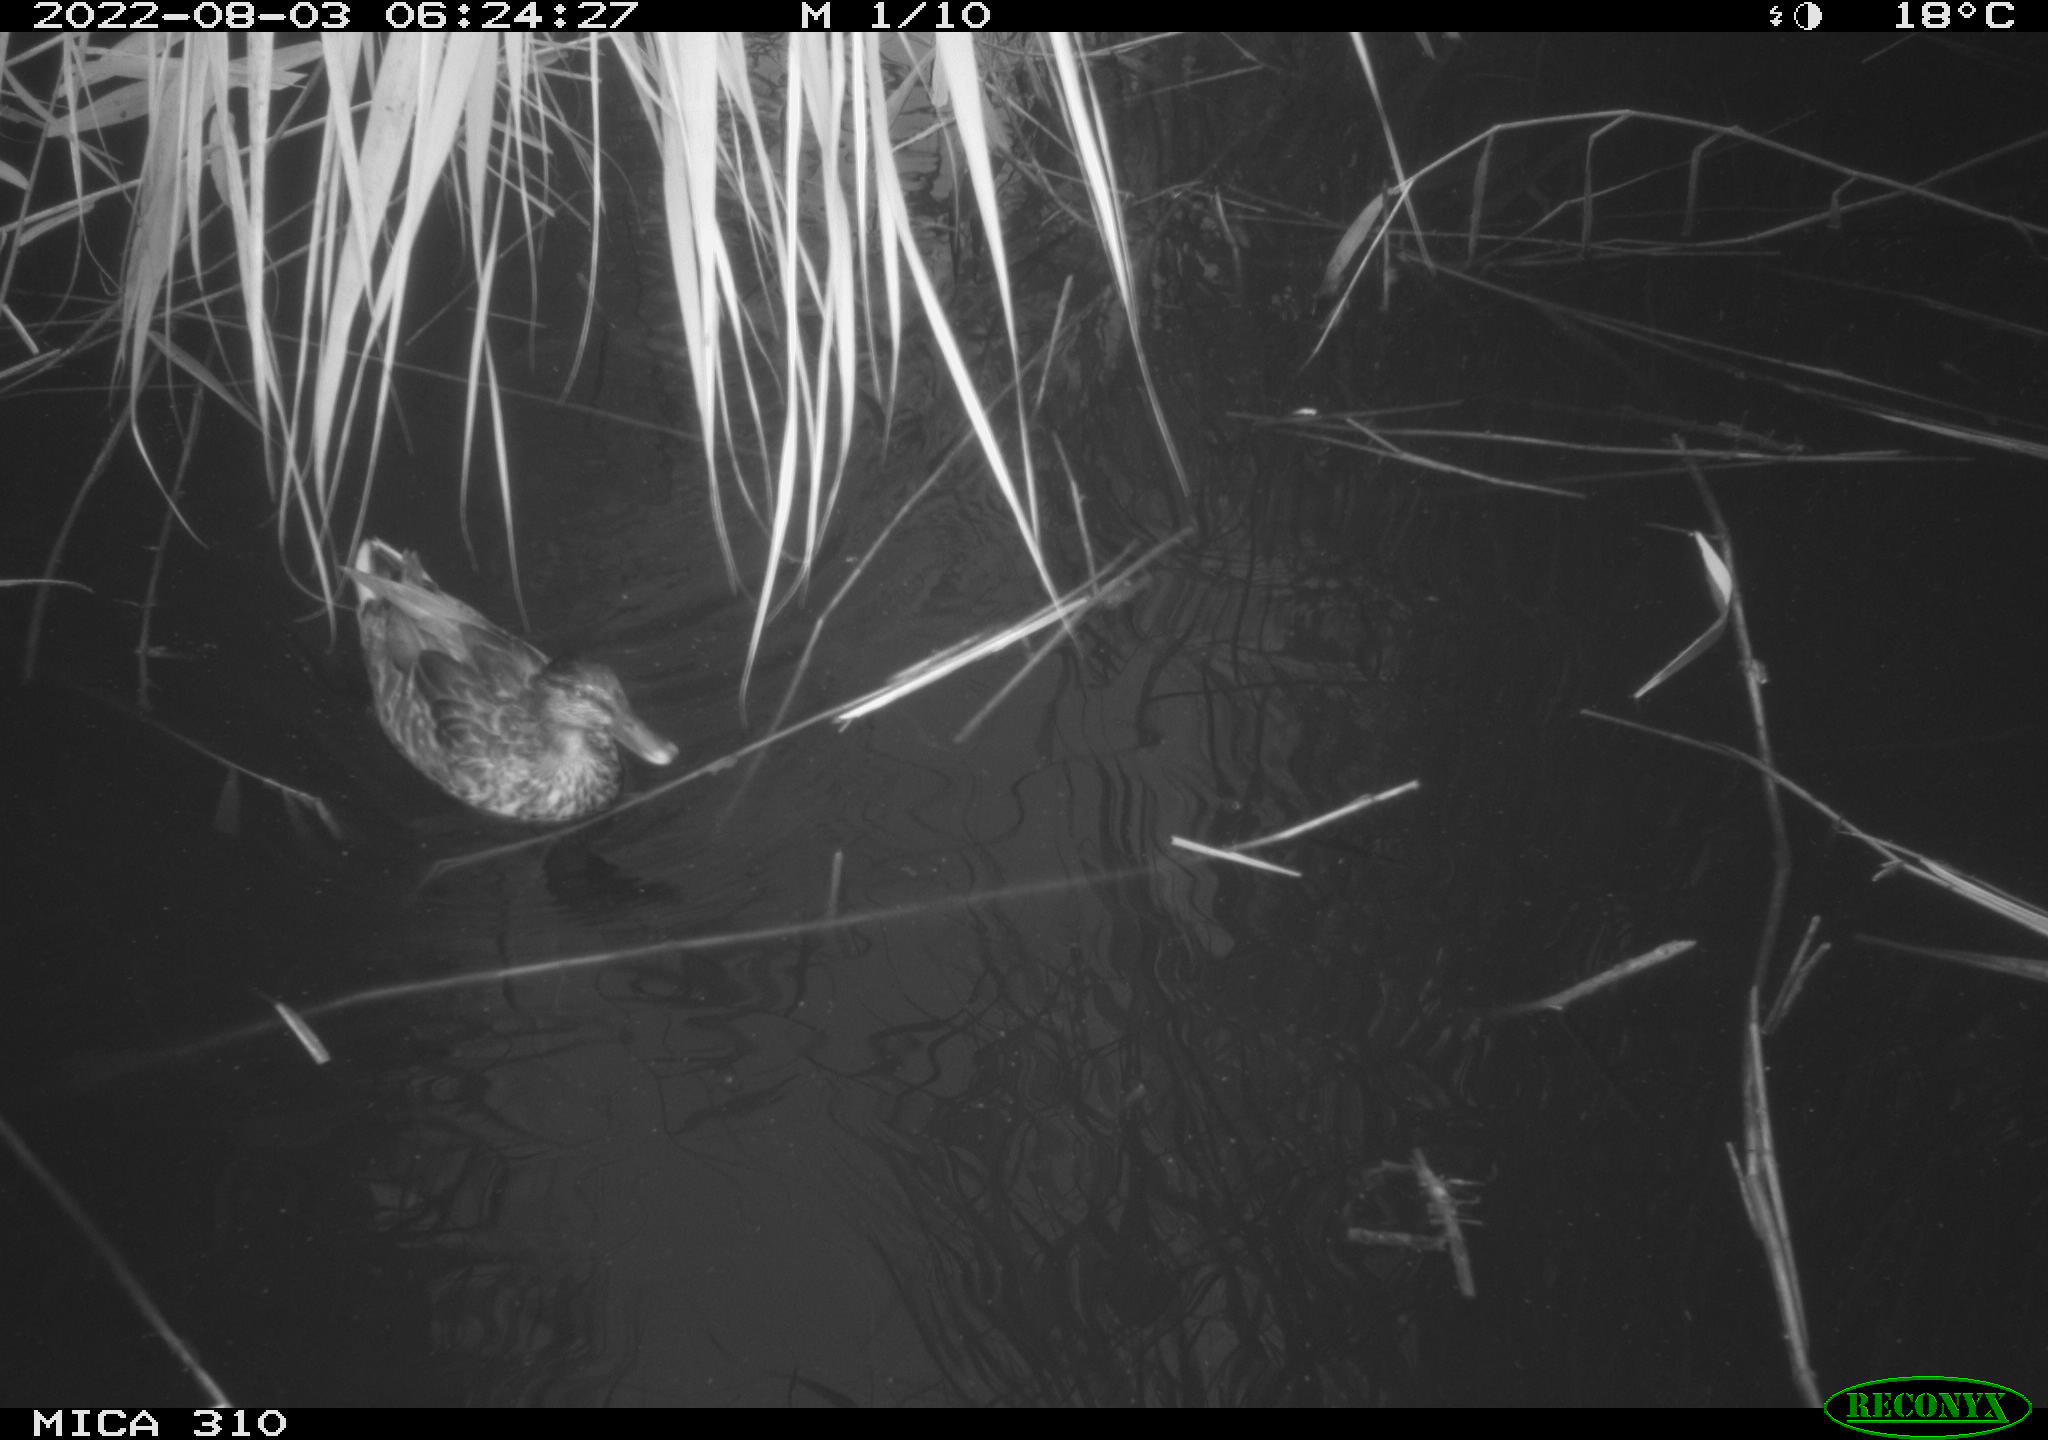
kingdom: Animalia
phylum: Chordata
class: Aves
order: Anseriformes
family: Anatidae
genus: Mareca
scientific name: Mareca strepera
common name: Gadwall
